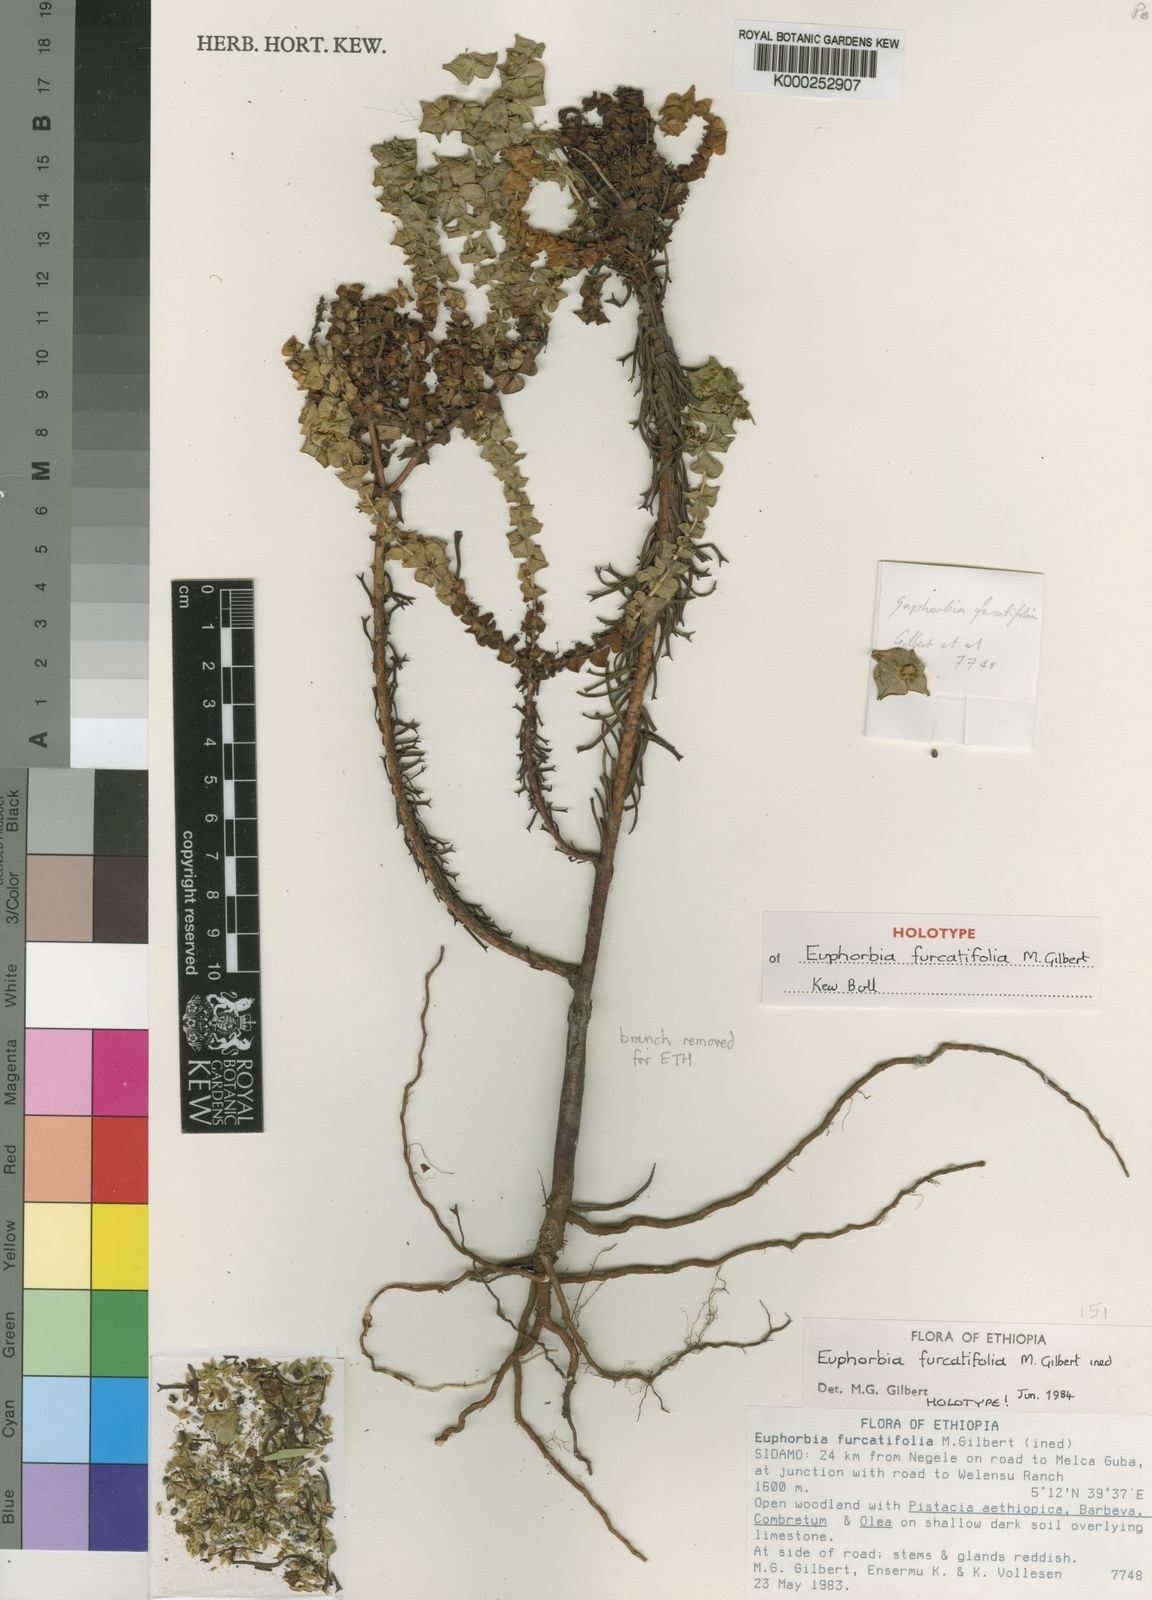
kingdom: Plantae
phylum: Tracheophyta
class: Magnoliopsida
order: Malpighiales
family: Euphorbiaceae
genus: Euphorbia
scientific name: Euphorbia furcatifolia
